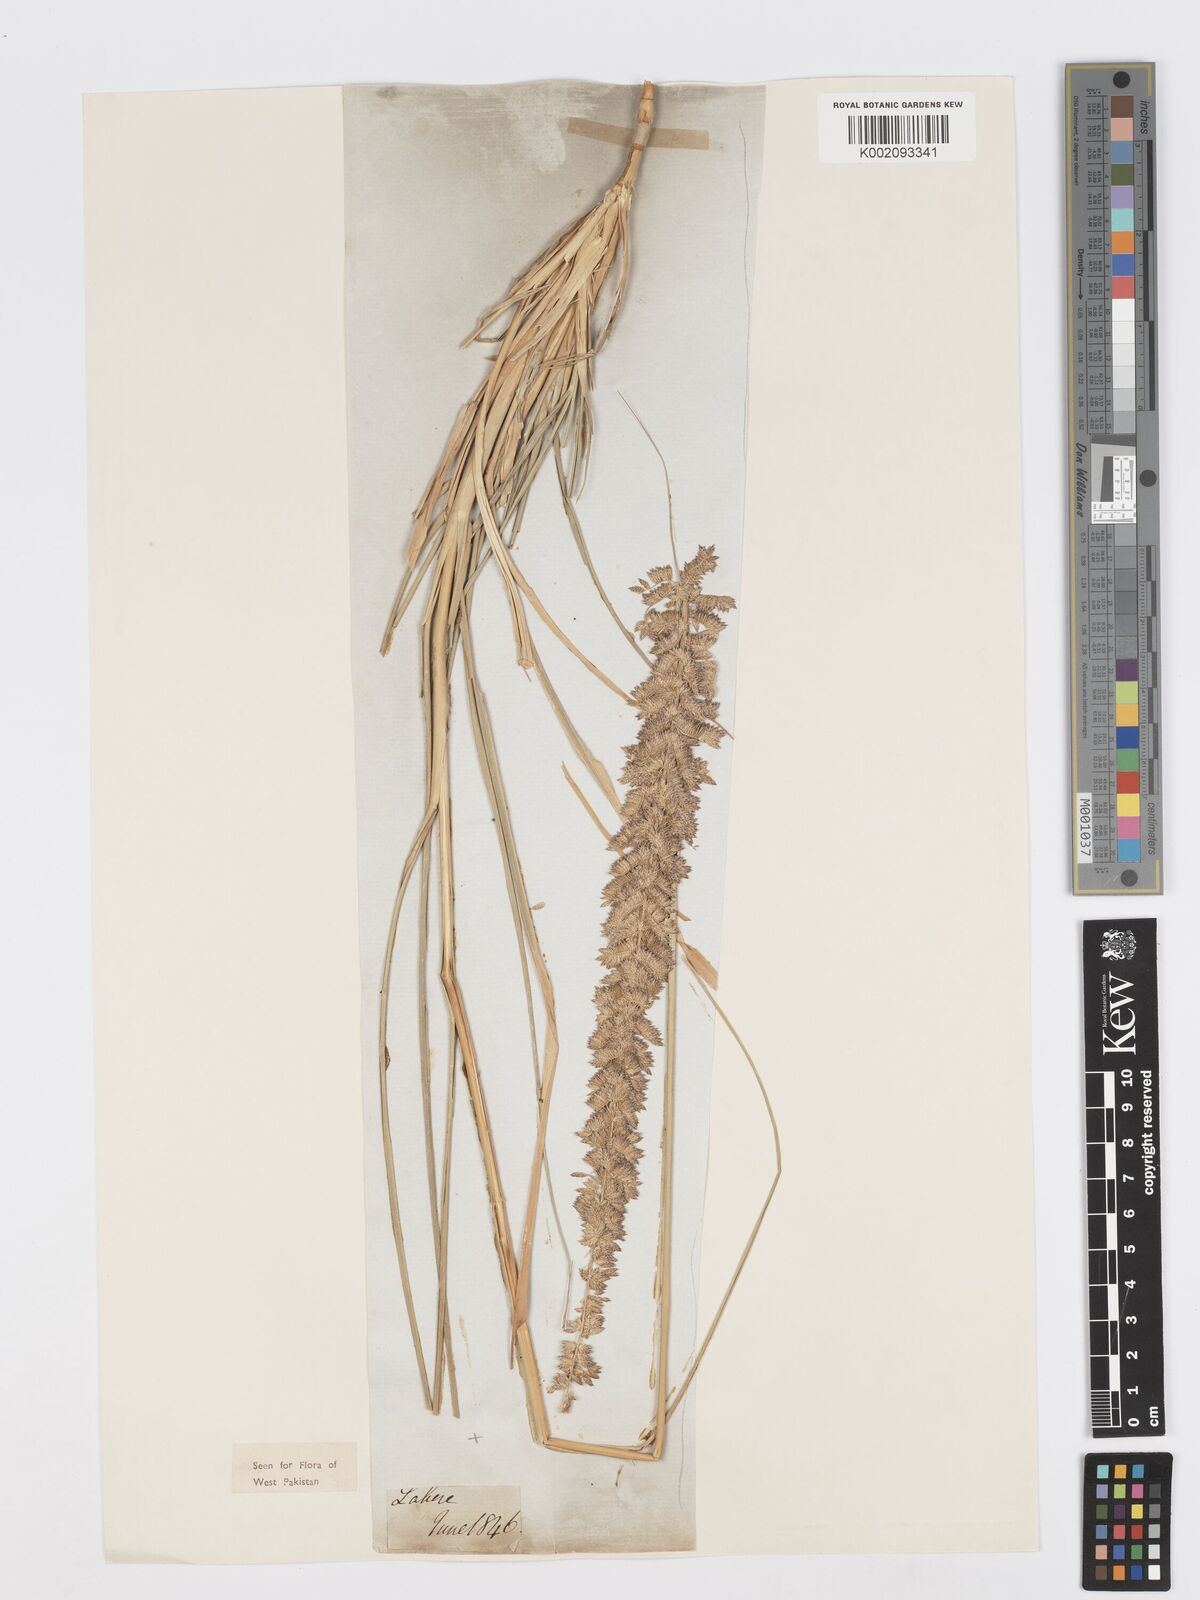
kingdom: Plantae
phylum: Tracheophyta
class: Liliopsida
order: Poales
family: Poaceae
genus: Desmostachya
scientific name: Desmostachya bipinnata
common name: Crowfoot grass
